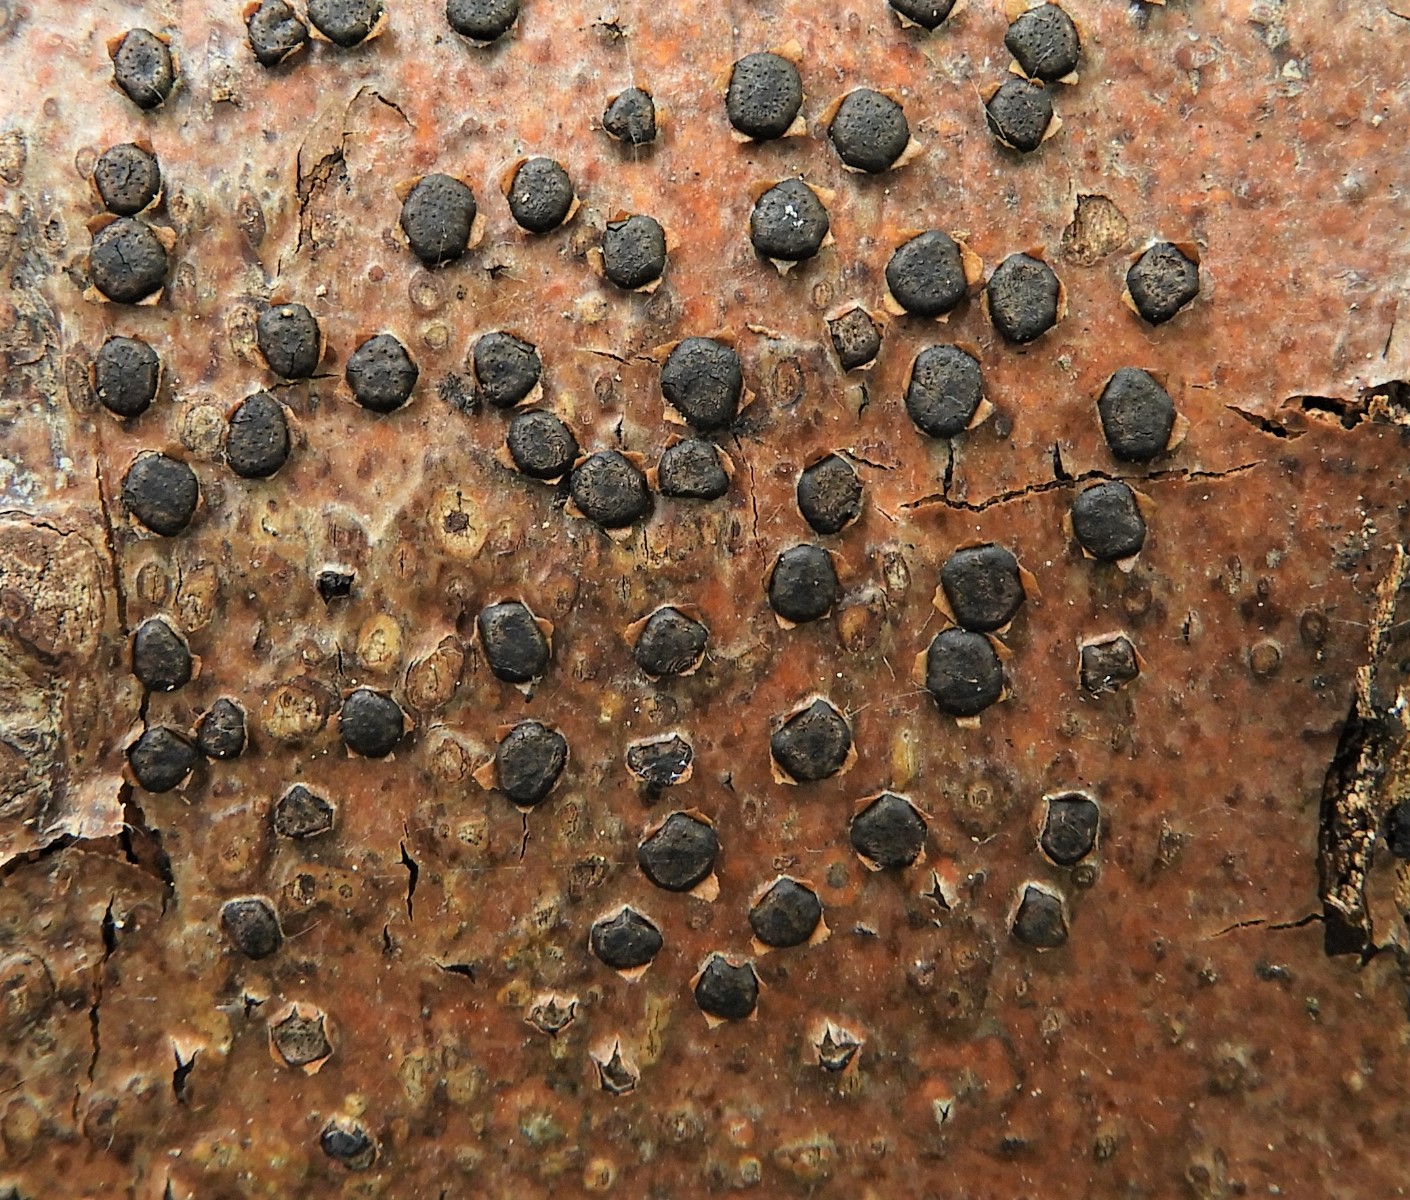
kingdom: Fungi
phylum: Ascomycota
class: Sordariomycetes
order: Xylariales
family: Diatrypaceae
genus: Diatrype
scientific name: Diatrype disciformis
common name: kant-kulskorpe
